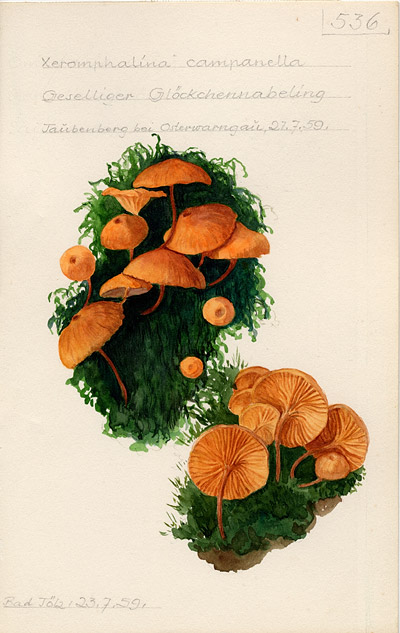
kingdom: Fungi
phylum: Basidiomycota
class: Agaricomycetes
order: Agaricales
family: Mycenaceae
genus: Xeromphalina
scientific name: Xeromphalina campanella
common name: Pinewood gingertail
